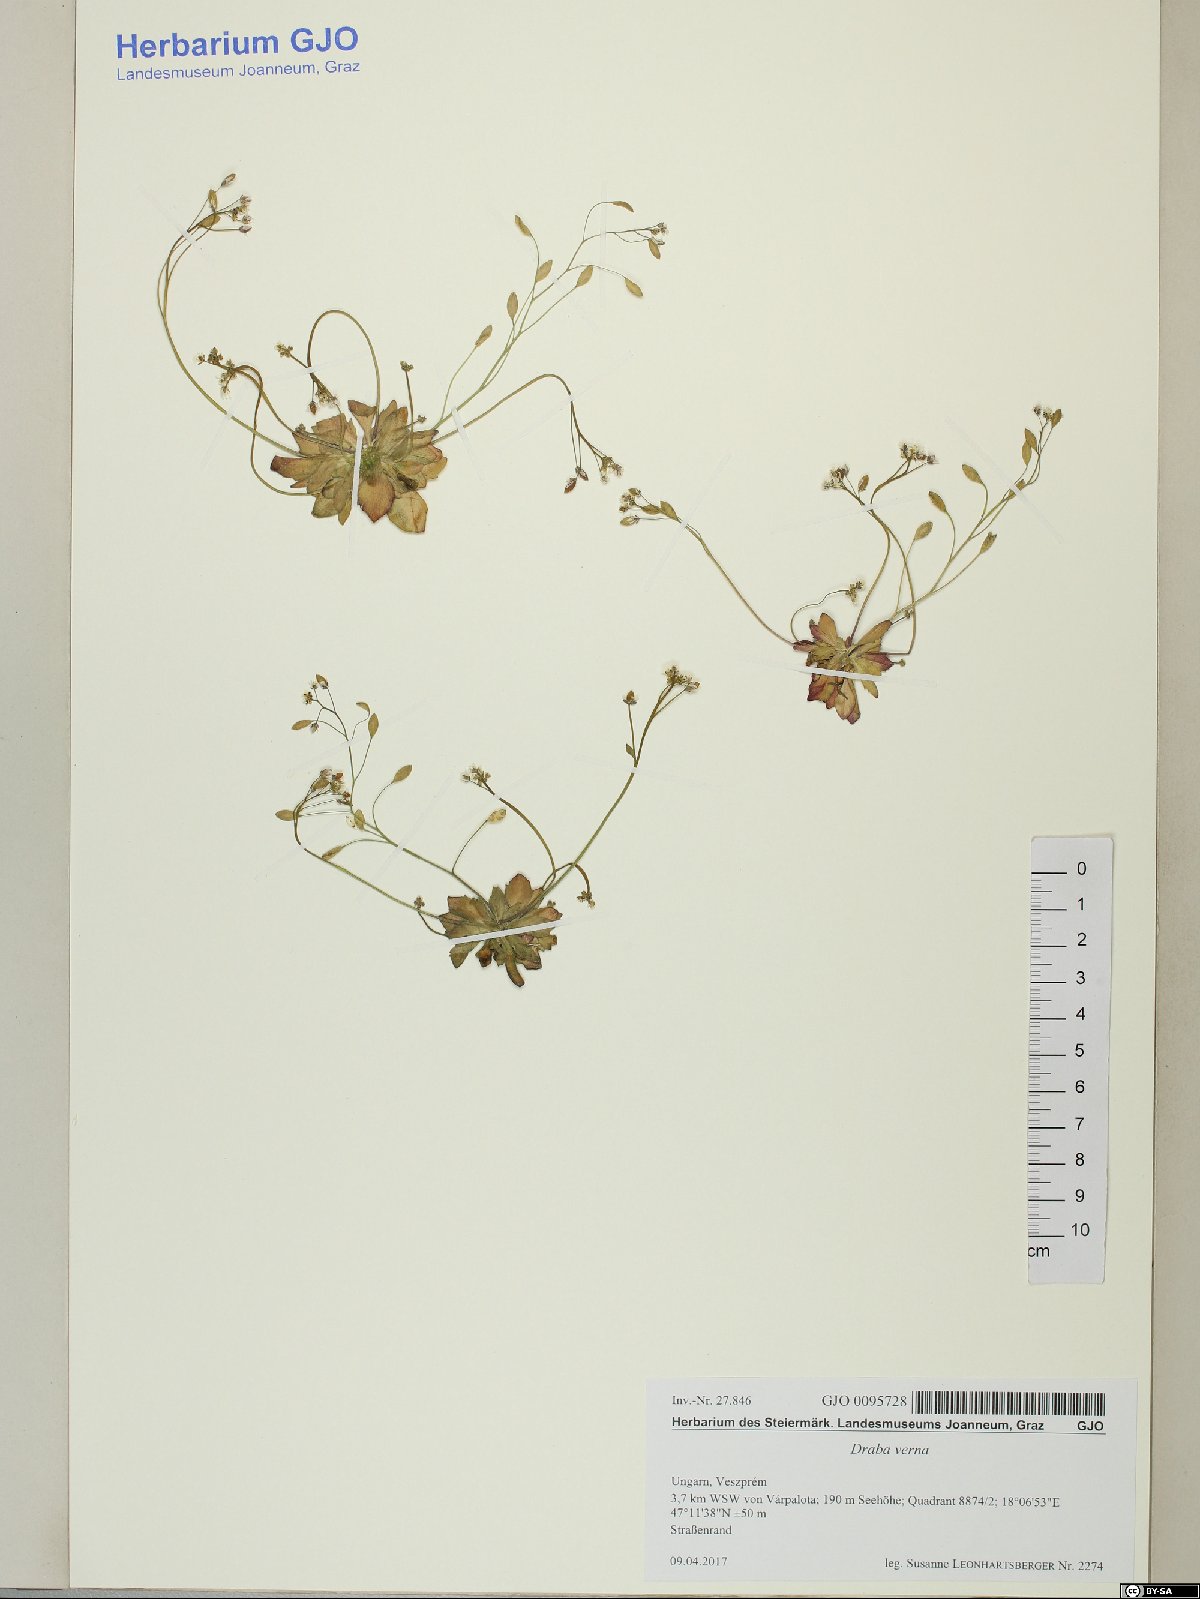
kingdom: Plantae
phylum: Tracheophyta
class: Magnoliopsida
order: Brassicales
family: Brassicaceae
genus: Draba
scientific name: Draba verna
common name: Spring draba
